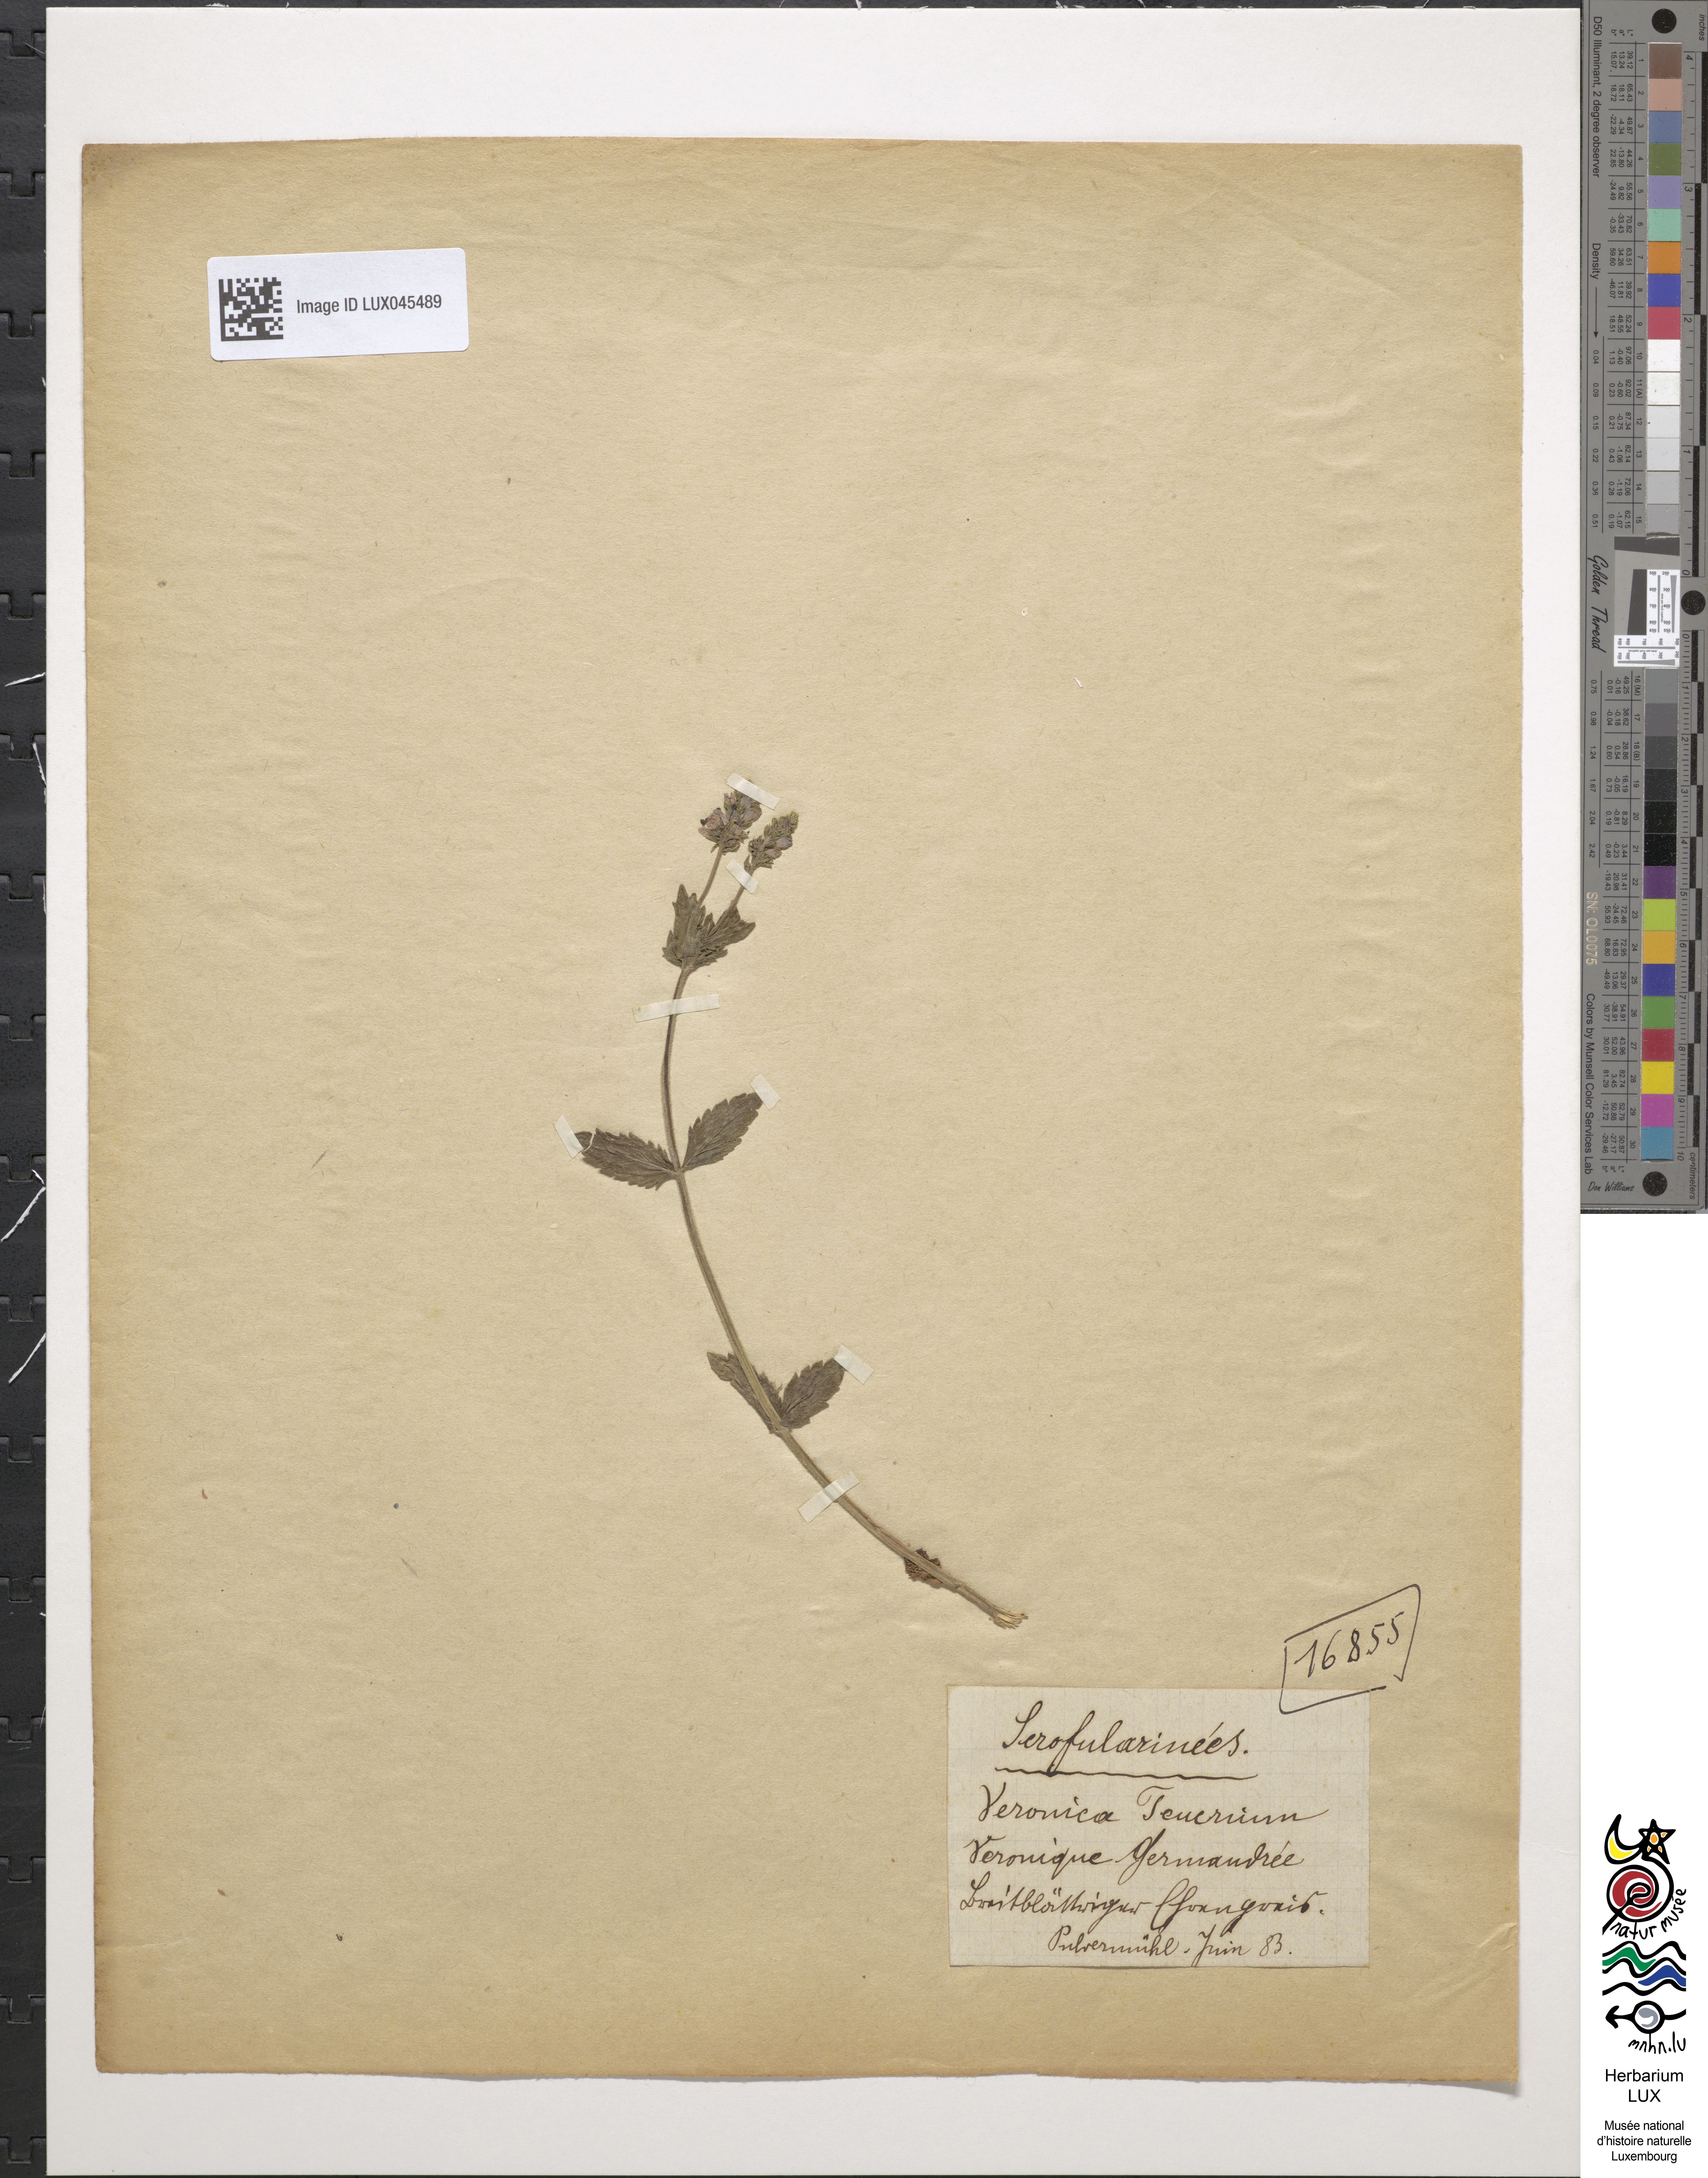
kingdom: Plantae
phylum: Tracheophyta
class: Magnoliopsida
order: Lamiales
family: Plantaginaceae
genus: Veronica
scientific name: Veronica teucrium
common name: Large speedwell
